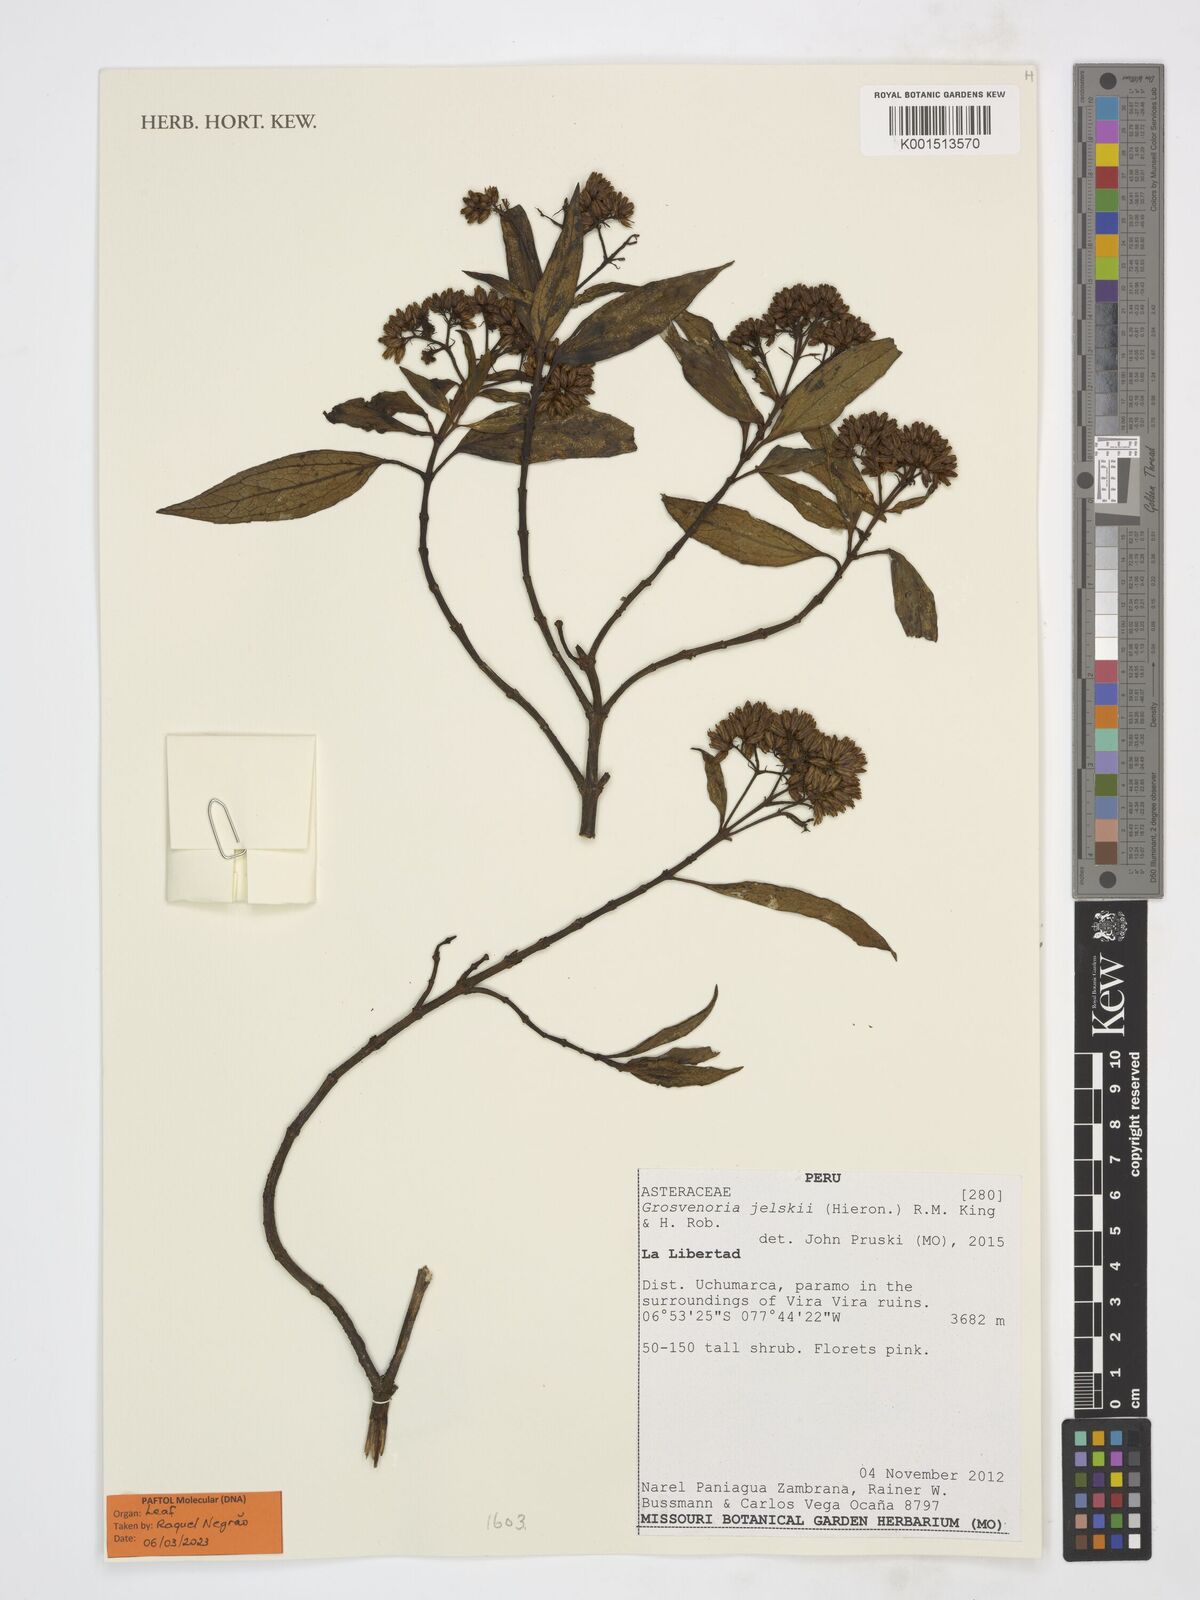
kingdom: Plantae
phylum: Tracheophyta
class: Magnoliopsida
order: Asterales
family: Asteraceae
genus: Critoniopsis
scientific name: Critoniopsis jelskii
